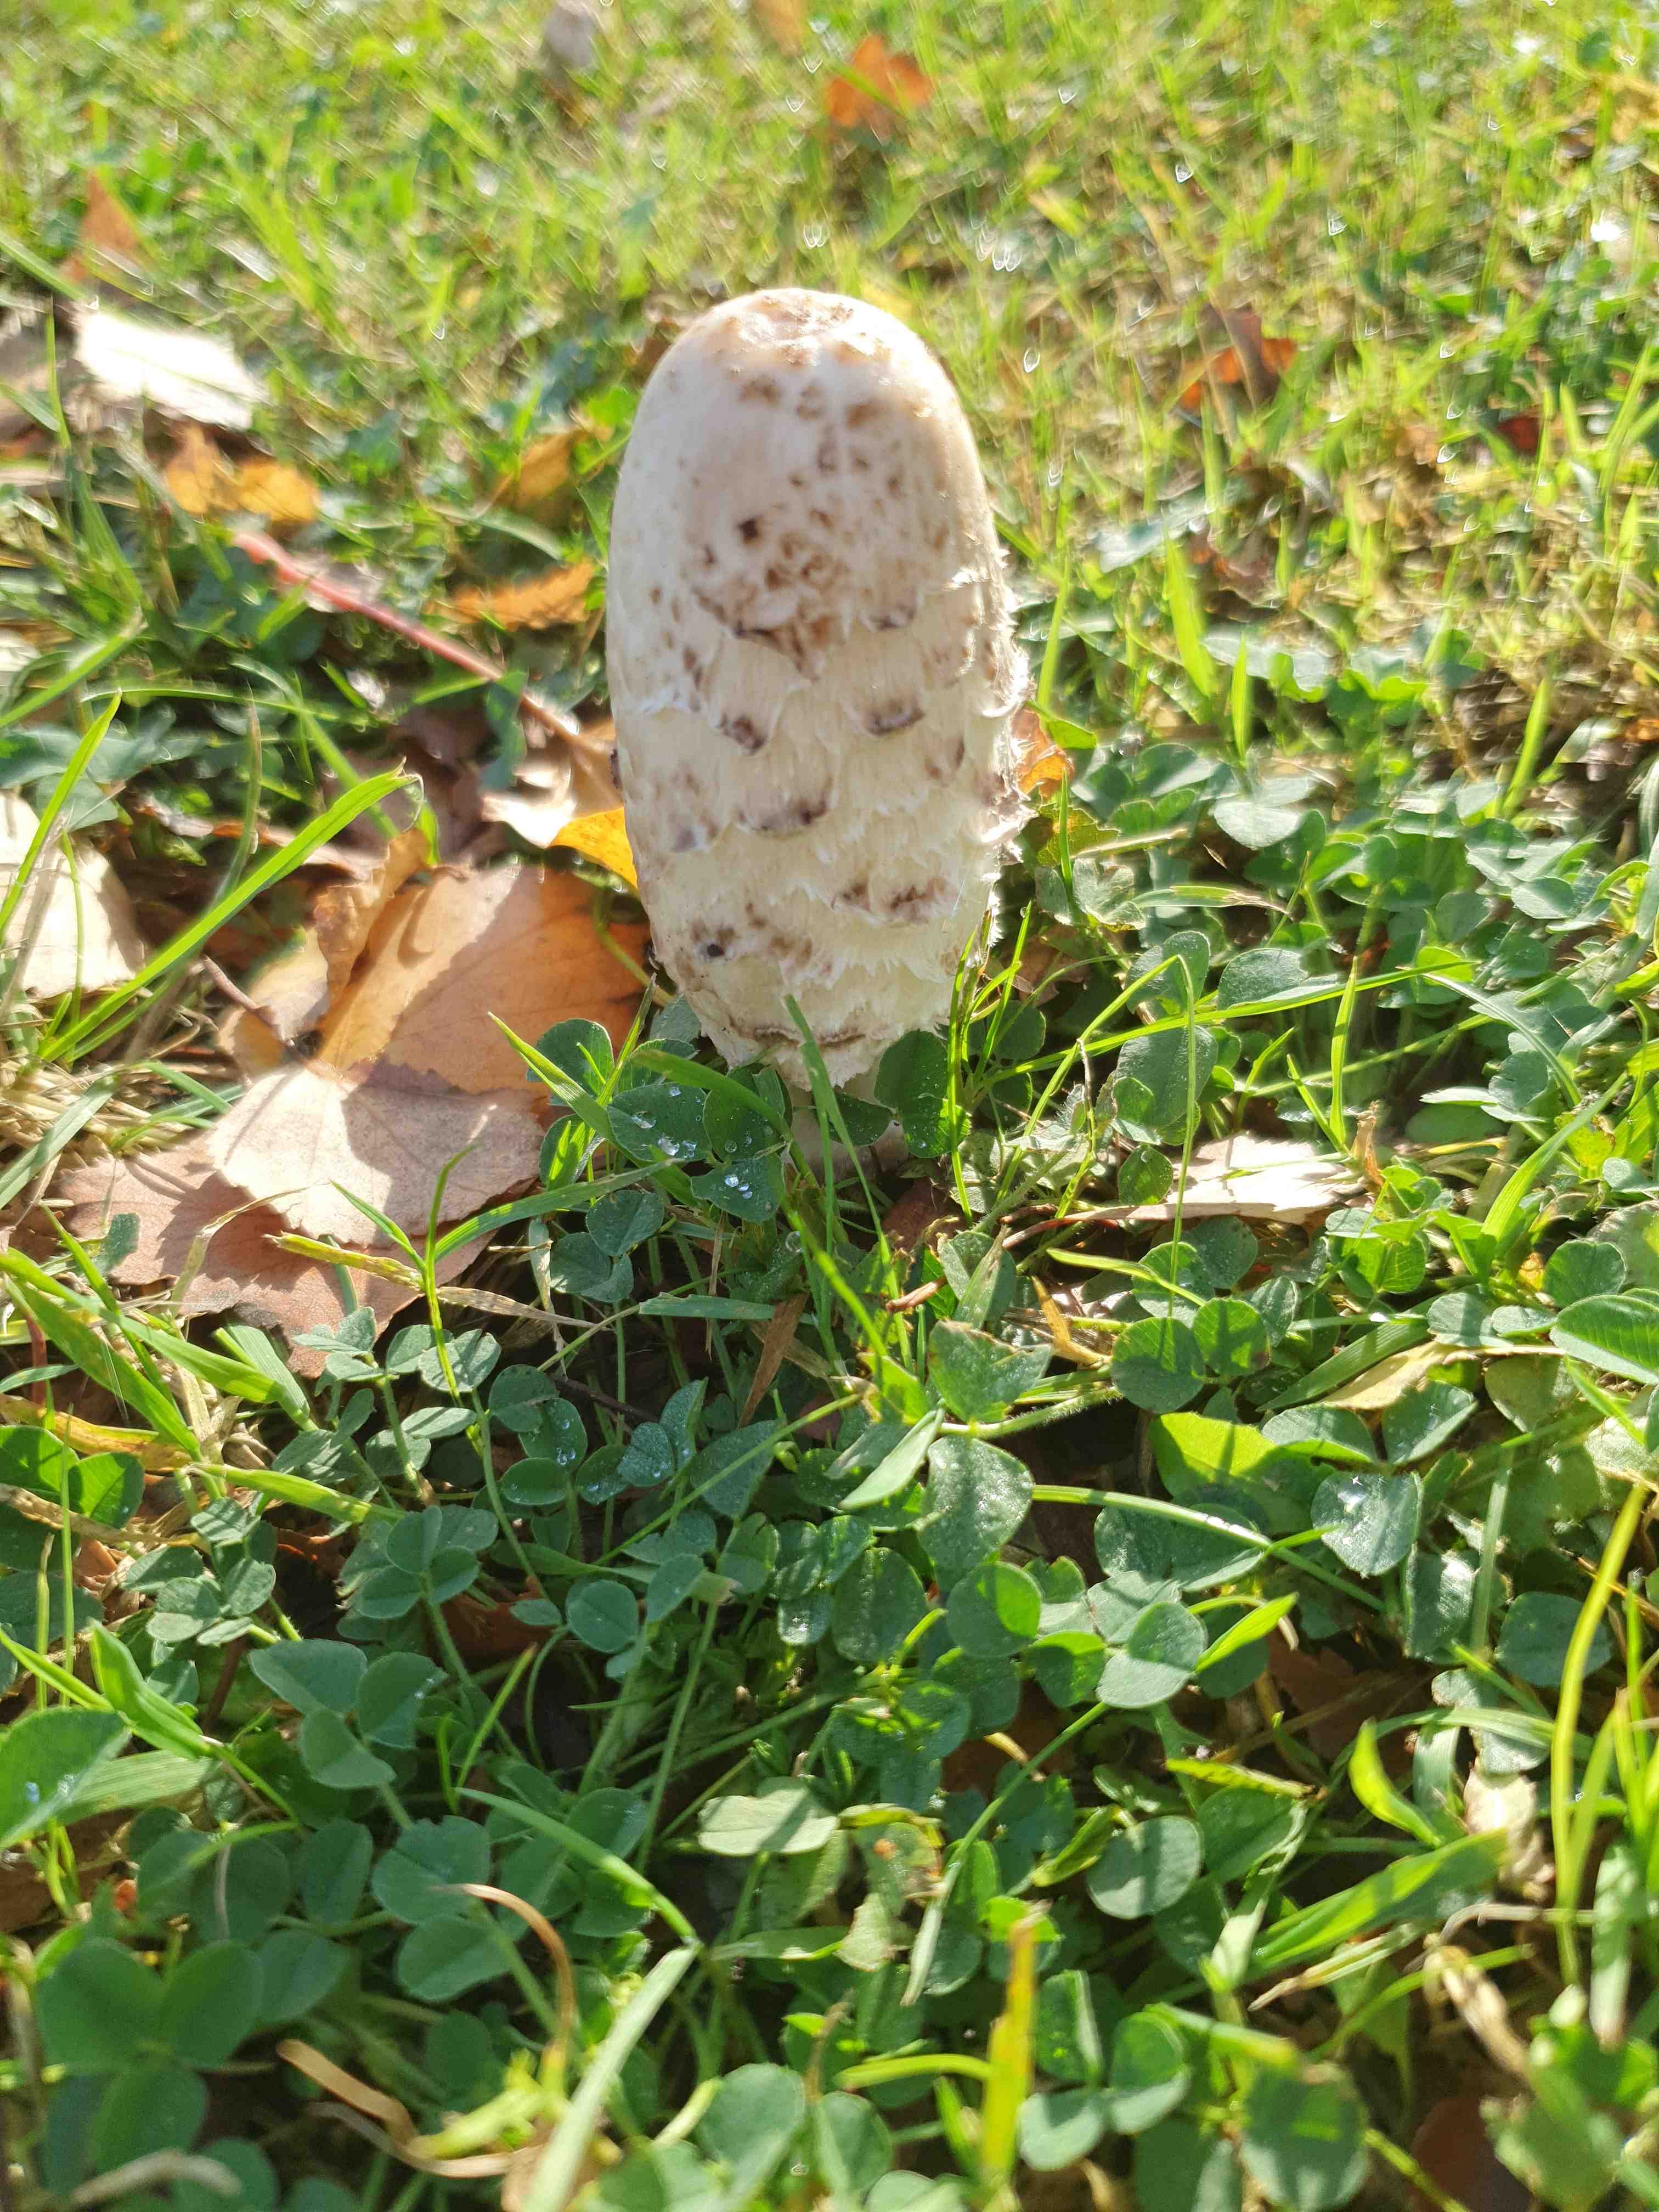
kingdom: Fungi
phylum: Basidiomycota
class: Agaricomycetes
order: Agaricales
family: Agaricaceae
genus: Coprinus
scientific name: Coprinus comatus
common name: stor parykhat
